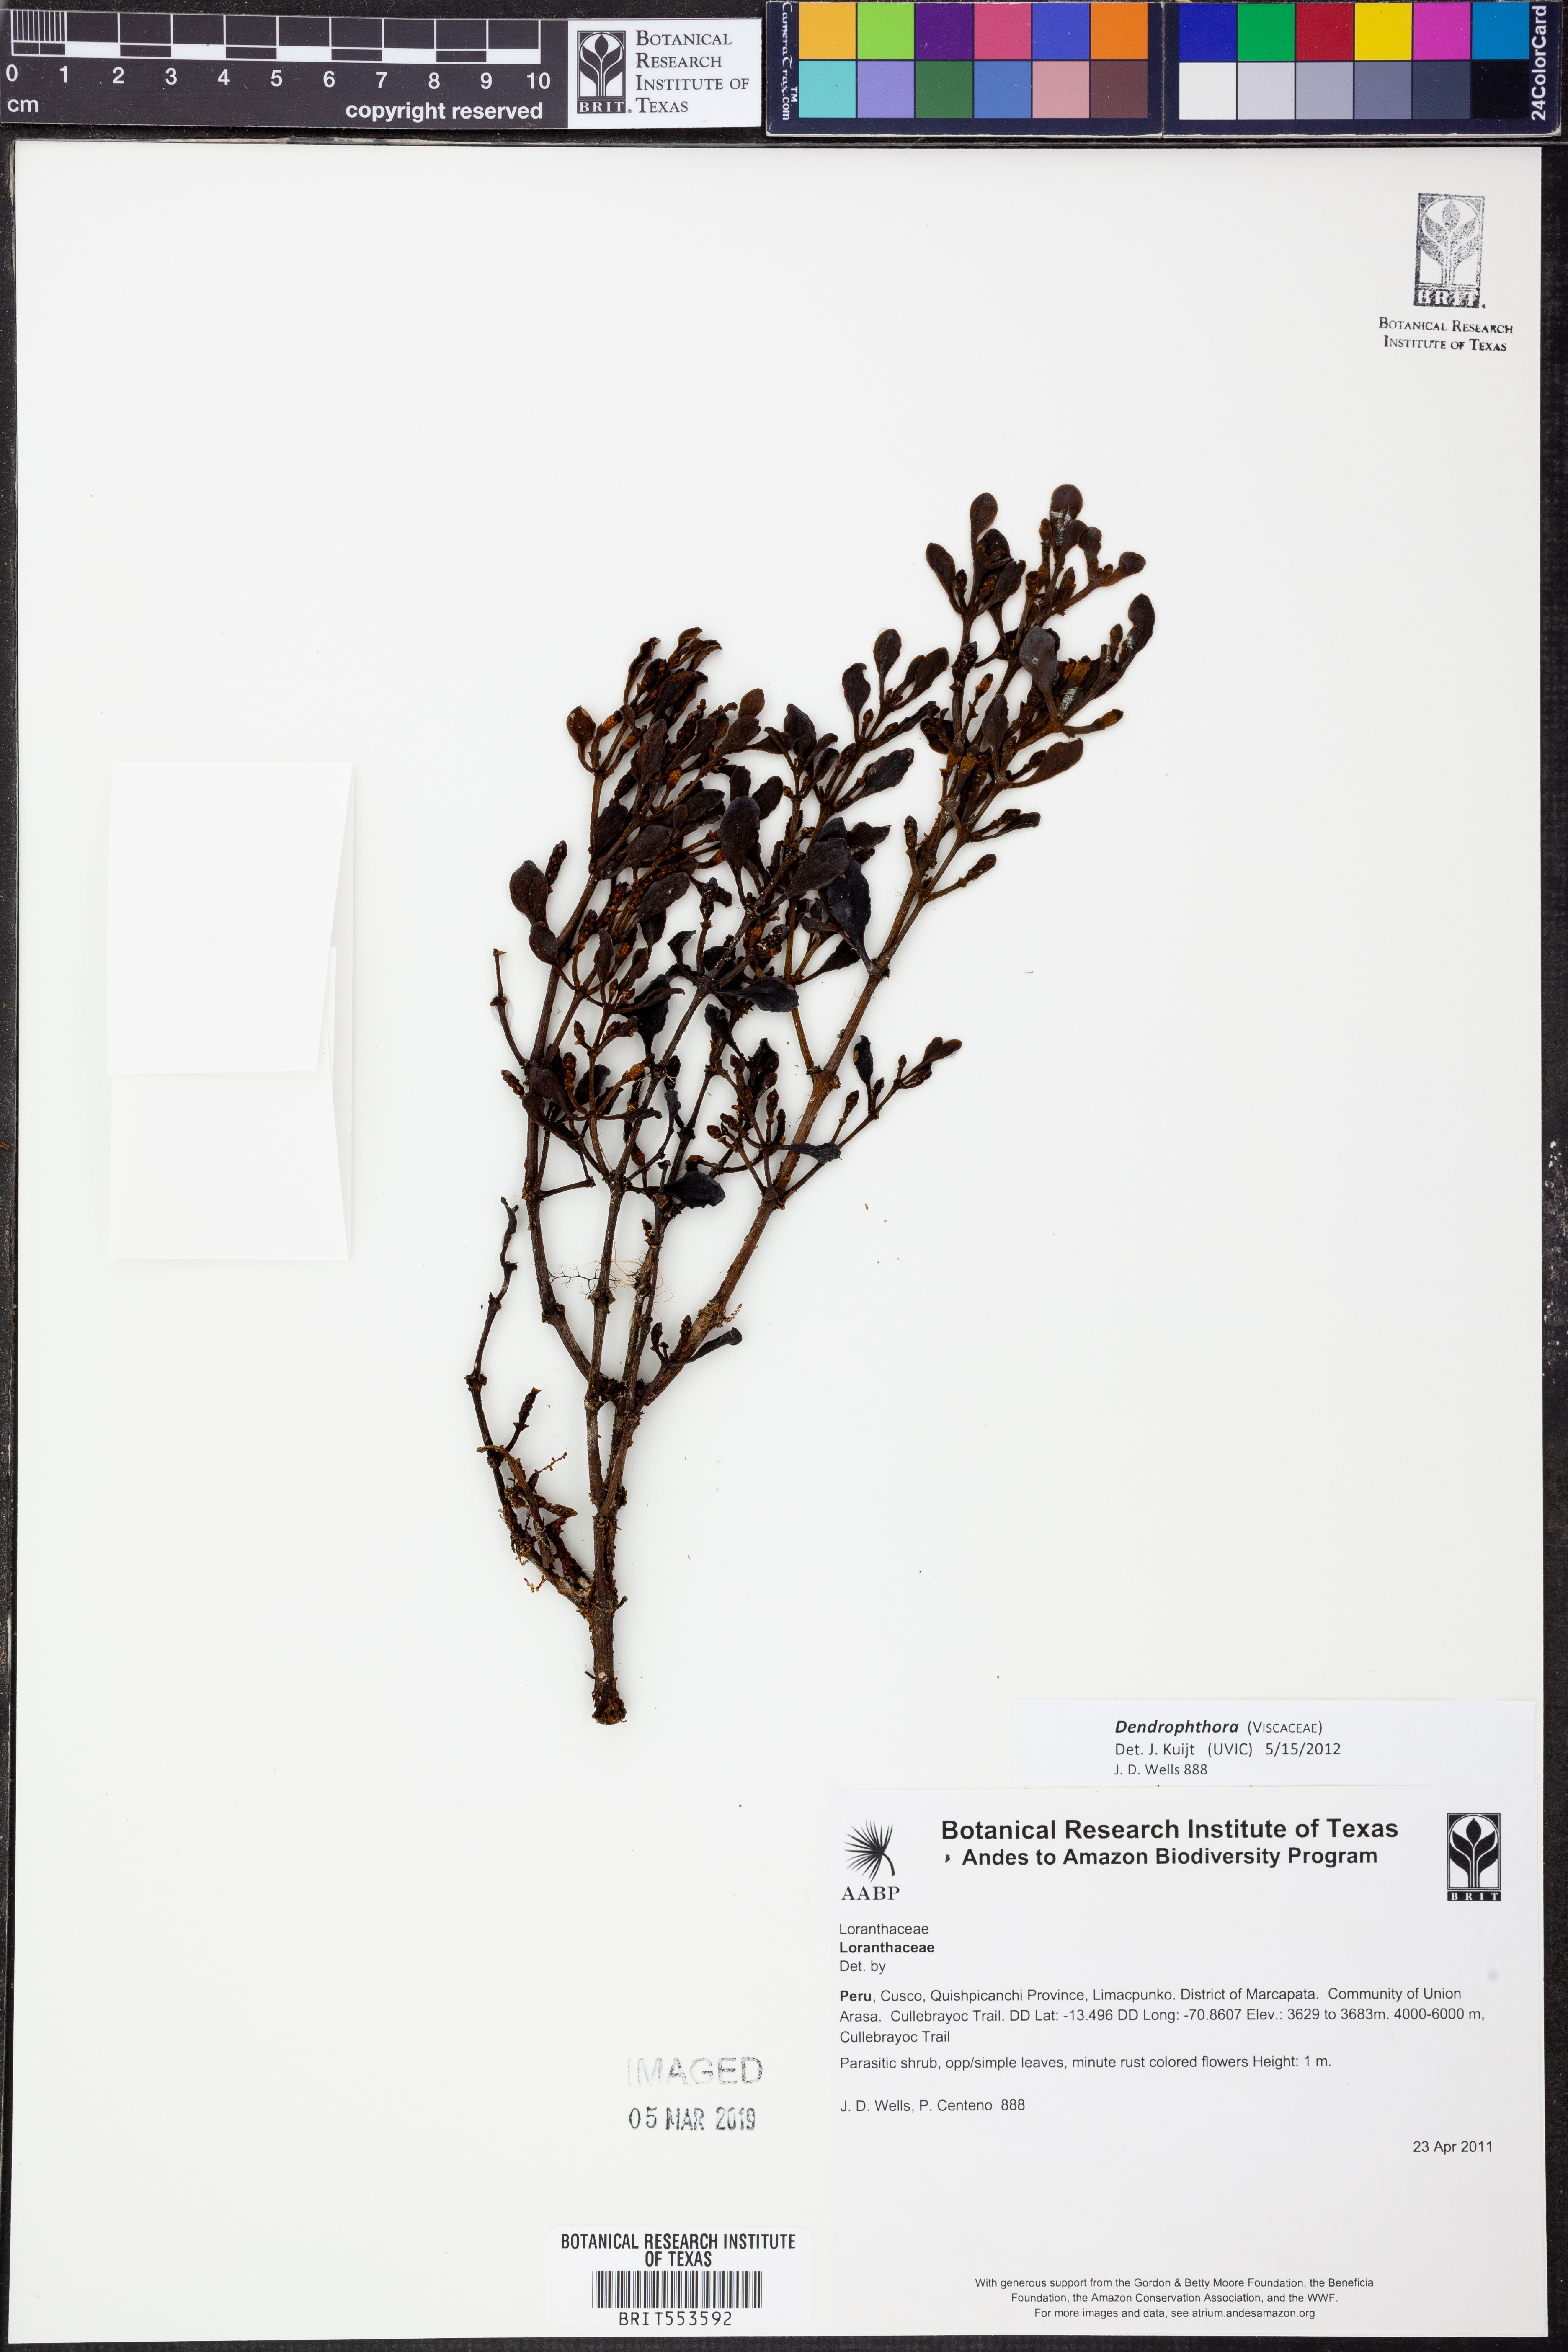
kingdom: Plantae
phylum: Tracheophyta
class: Magnoliopsida
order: Santalales
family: Viscaceae
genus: Dendrophthora
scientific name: Dendrophthora
